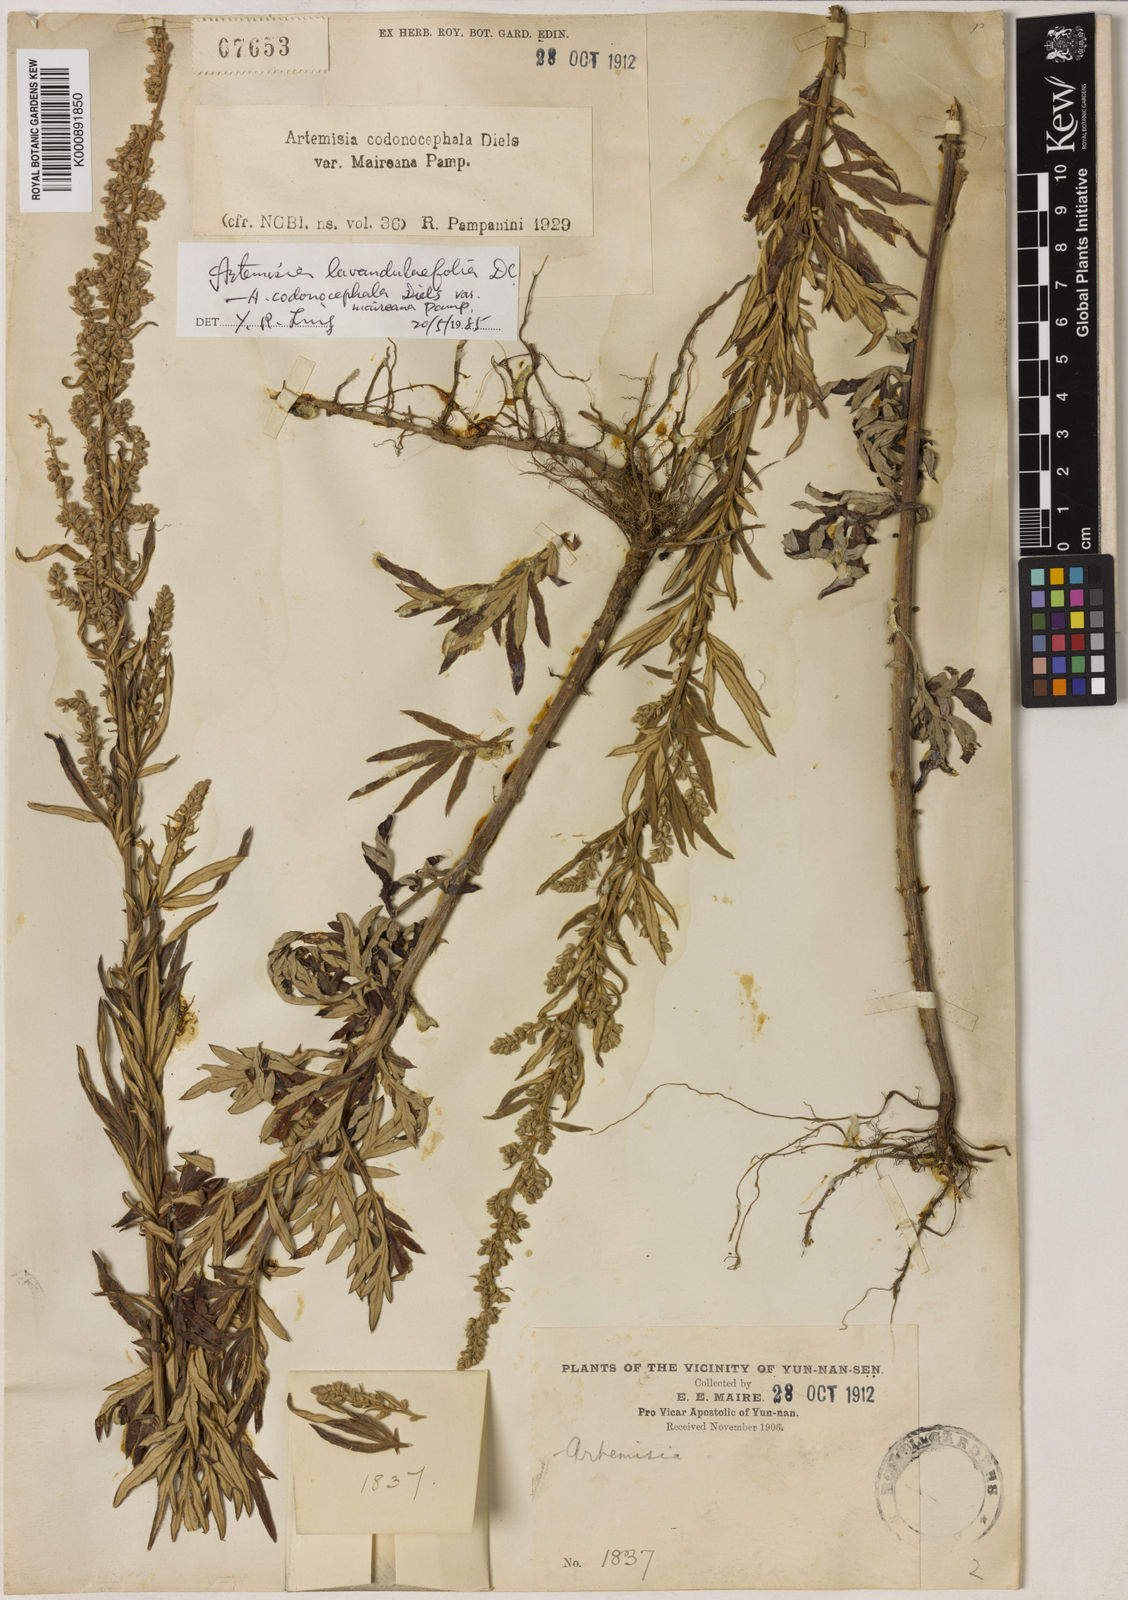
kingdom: Plantae
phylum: Tracheophyta
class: Magnoliopsida
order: Asterales
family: Asteraceae
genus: Artemisia
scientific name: Artemisia umbrosa
